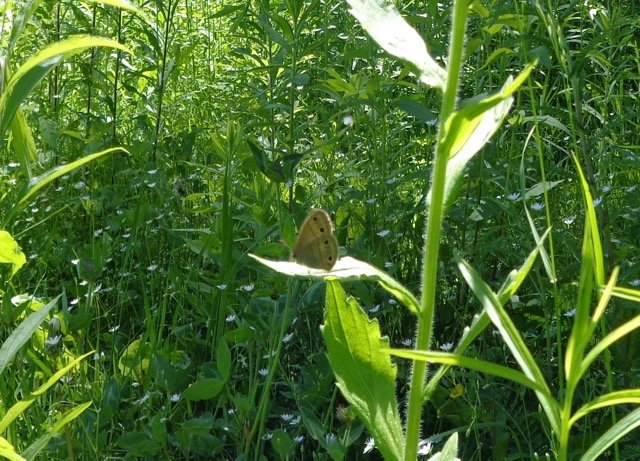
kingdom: Animalia
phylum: Arthropoda
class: Insecta
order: Lepidoptera
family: Nymphalidae
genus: Euptychia
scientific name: Euptychia cymela
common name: Little Wood Satyr
